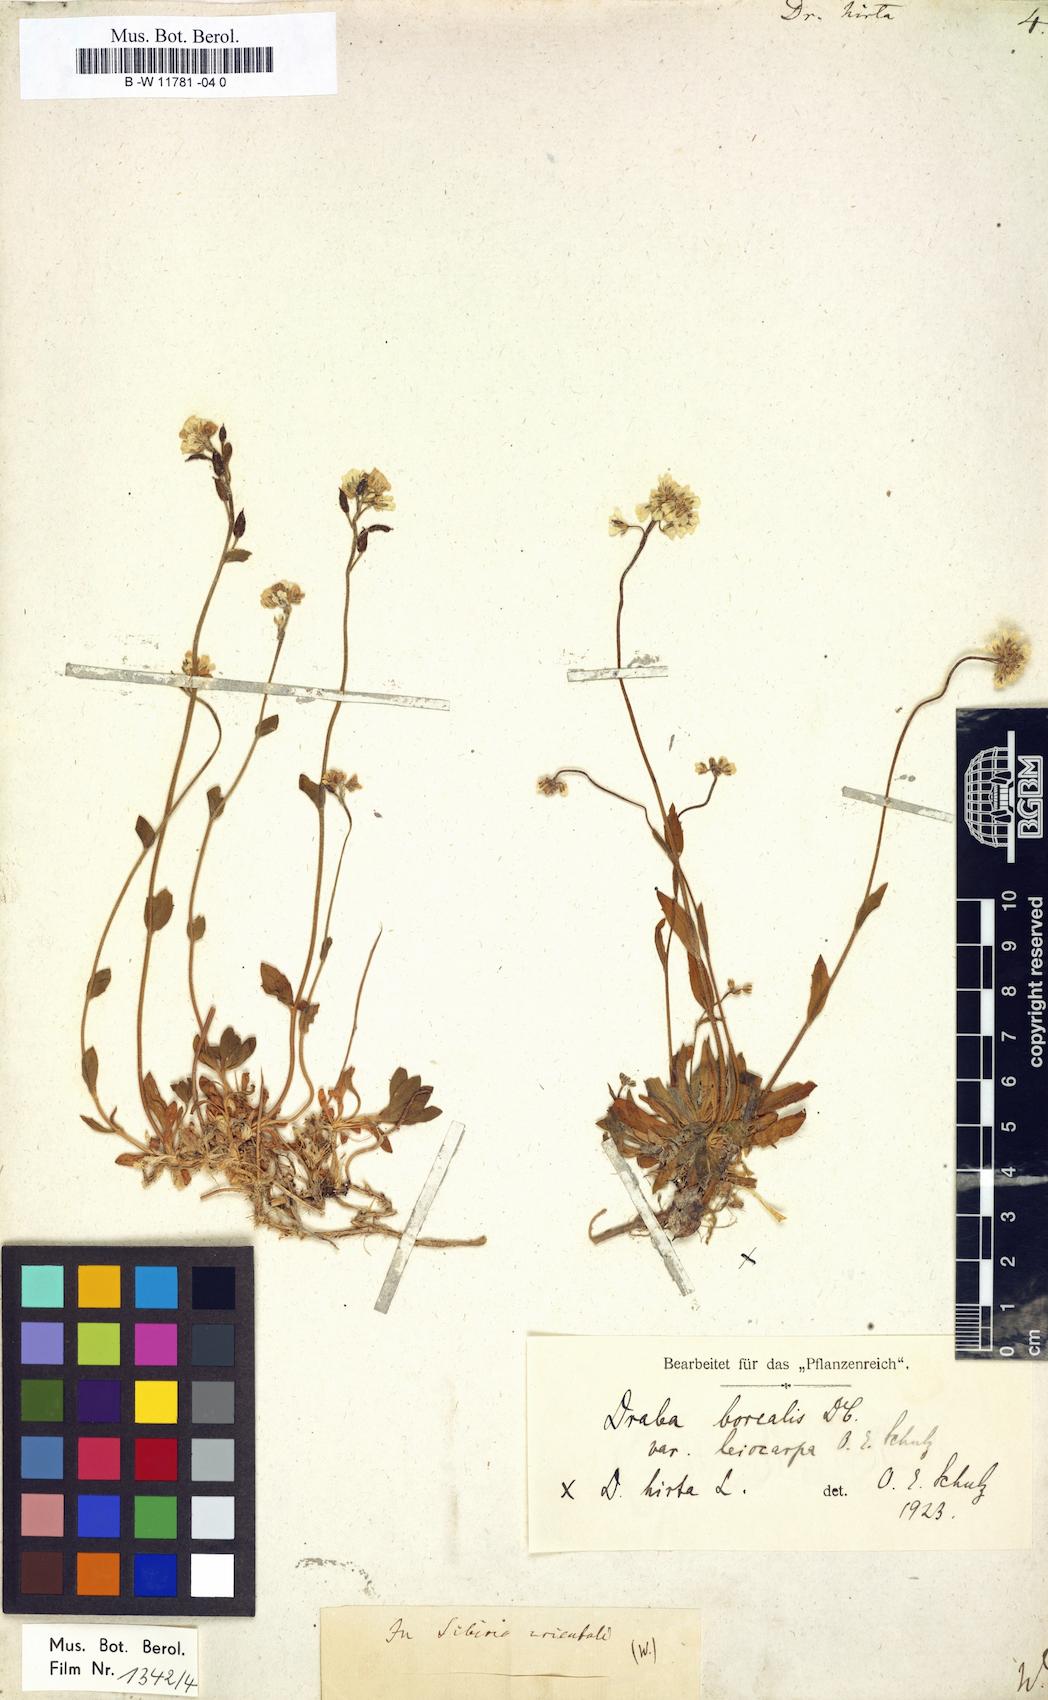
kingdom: Plantae
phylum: Tracheophyta
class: Magnoliopsida
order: Brassicales
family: Brassicaceae
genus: Draba
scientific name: Draba hirta
